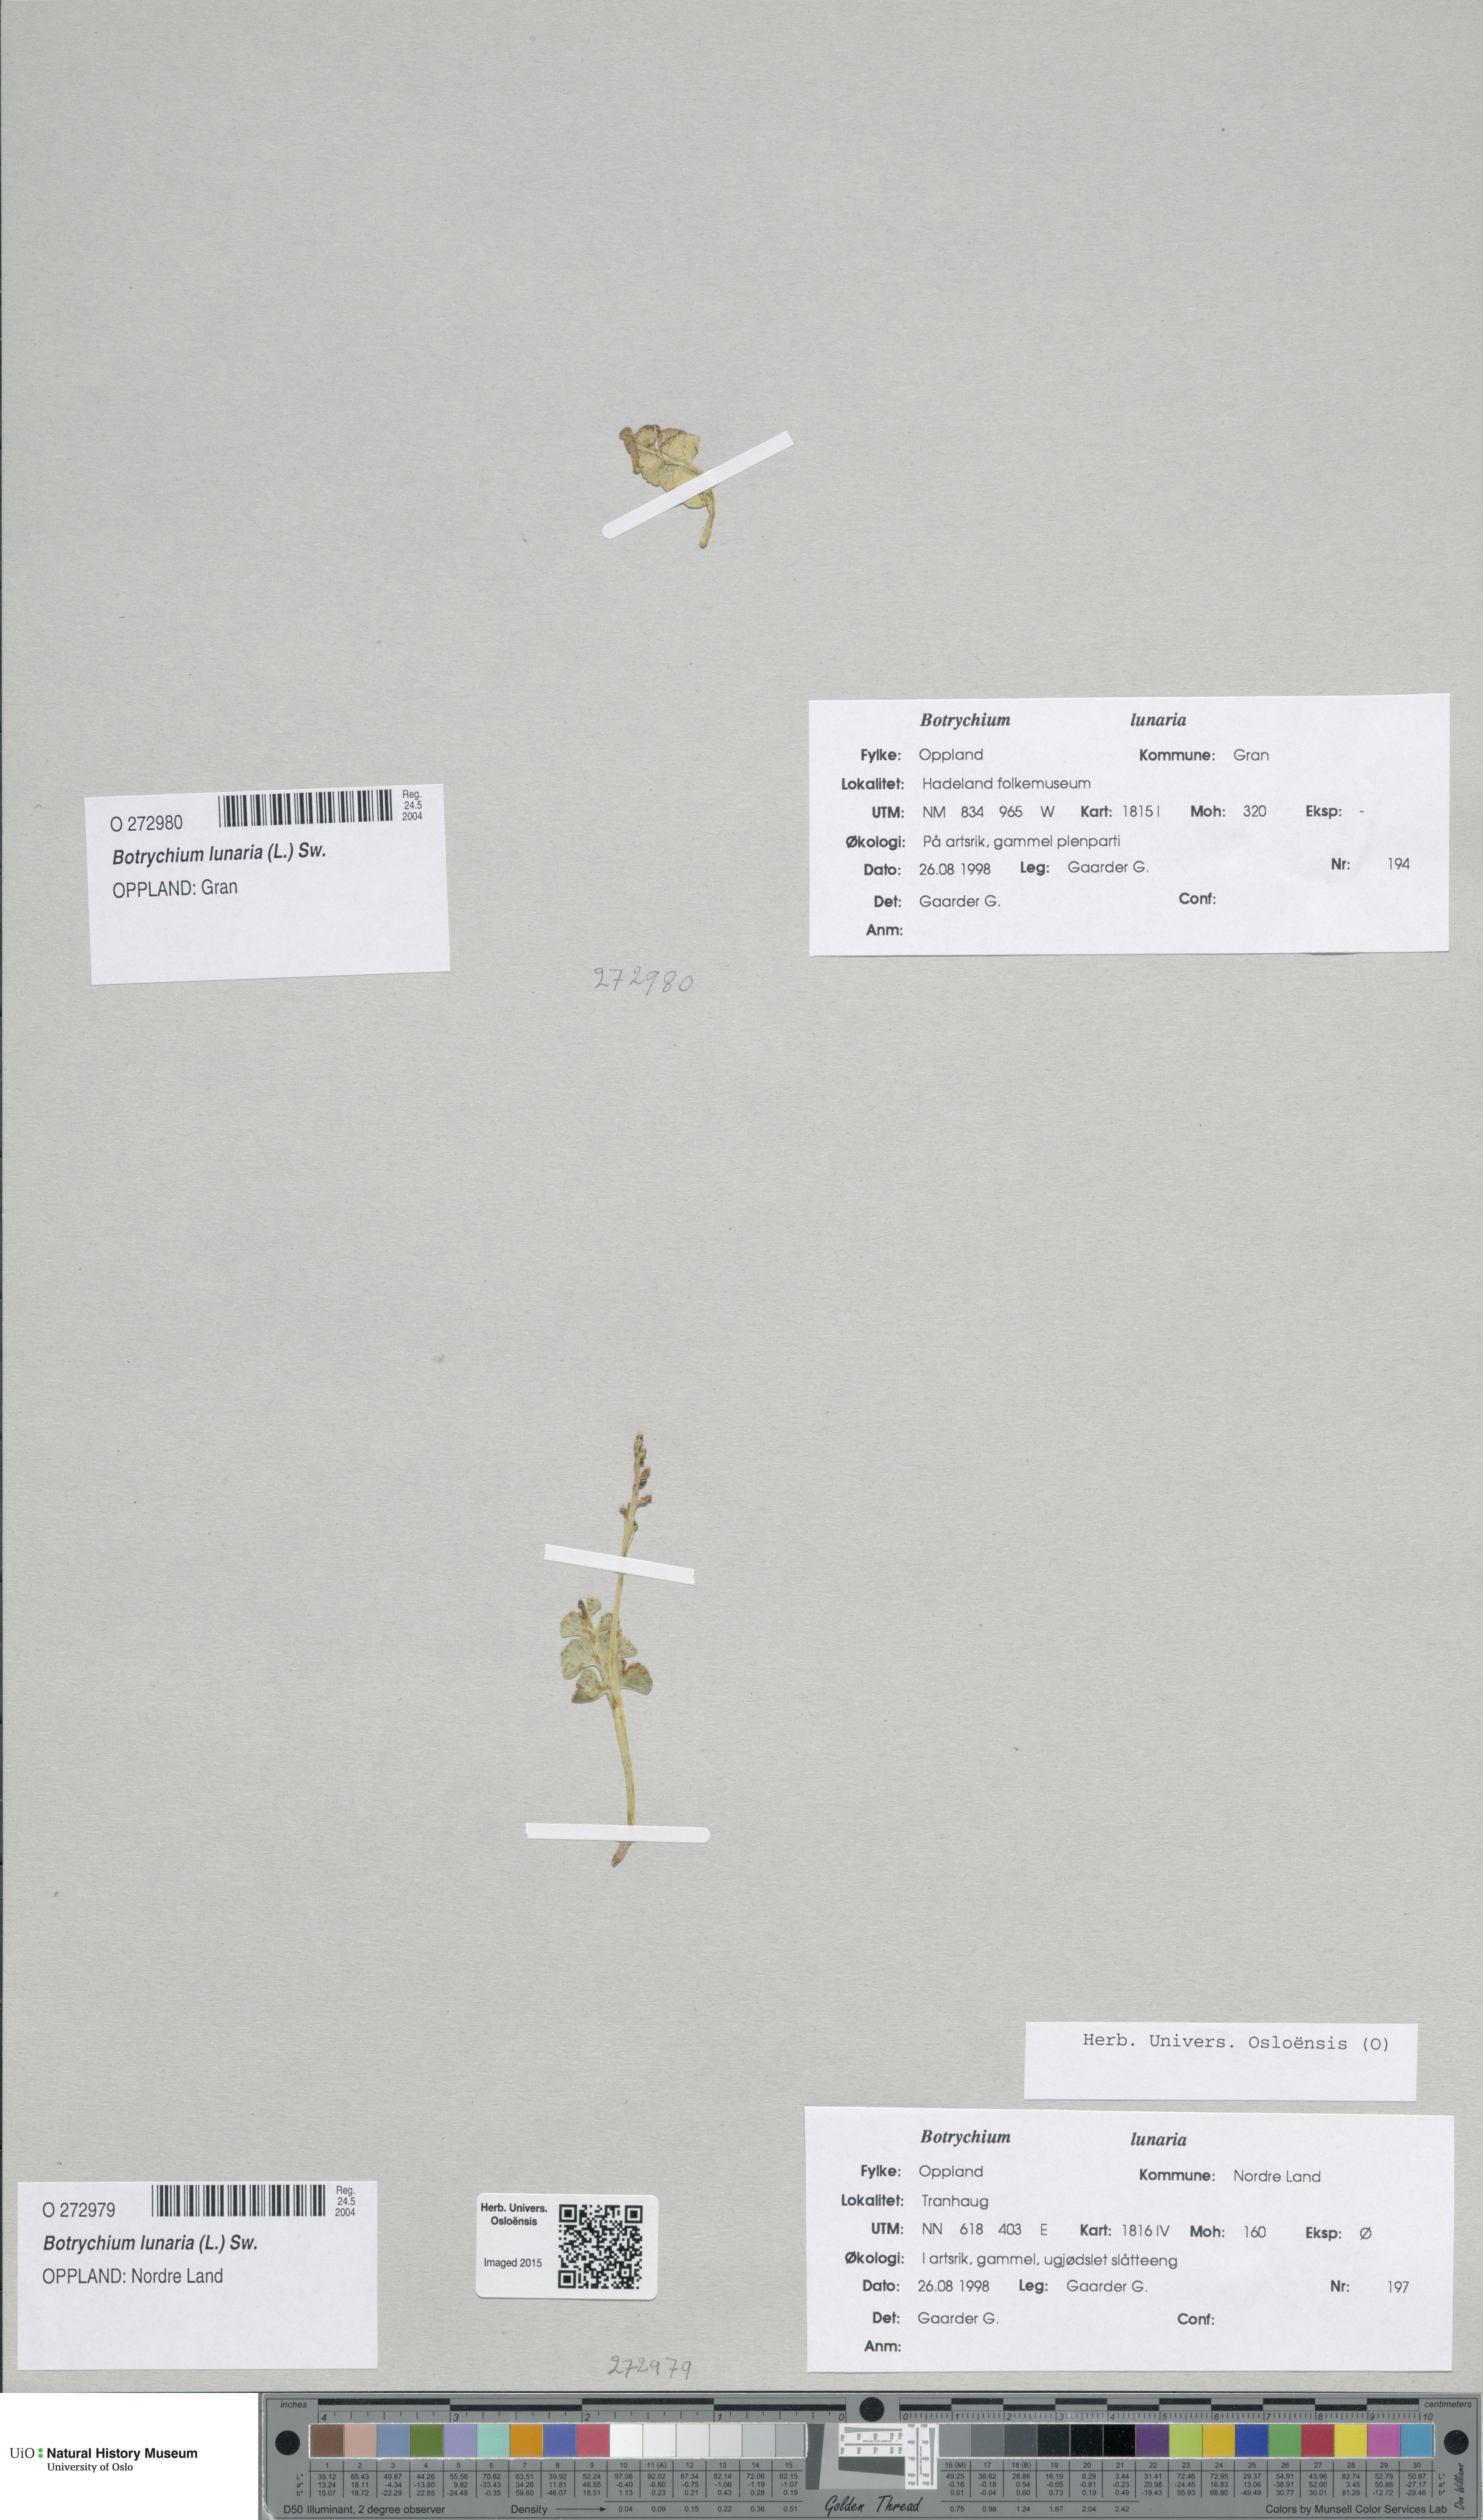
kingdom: Plantae
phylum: Tracheophyta
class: Polypodiopsida
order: Ophioglossales
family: Ophioglossaceae
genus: Botrychium
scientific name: Botrychium lunaria
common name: Moonwort
